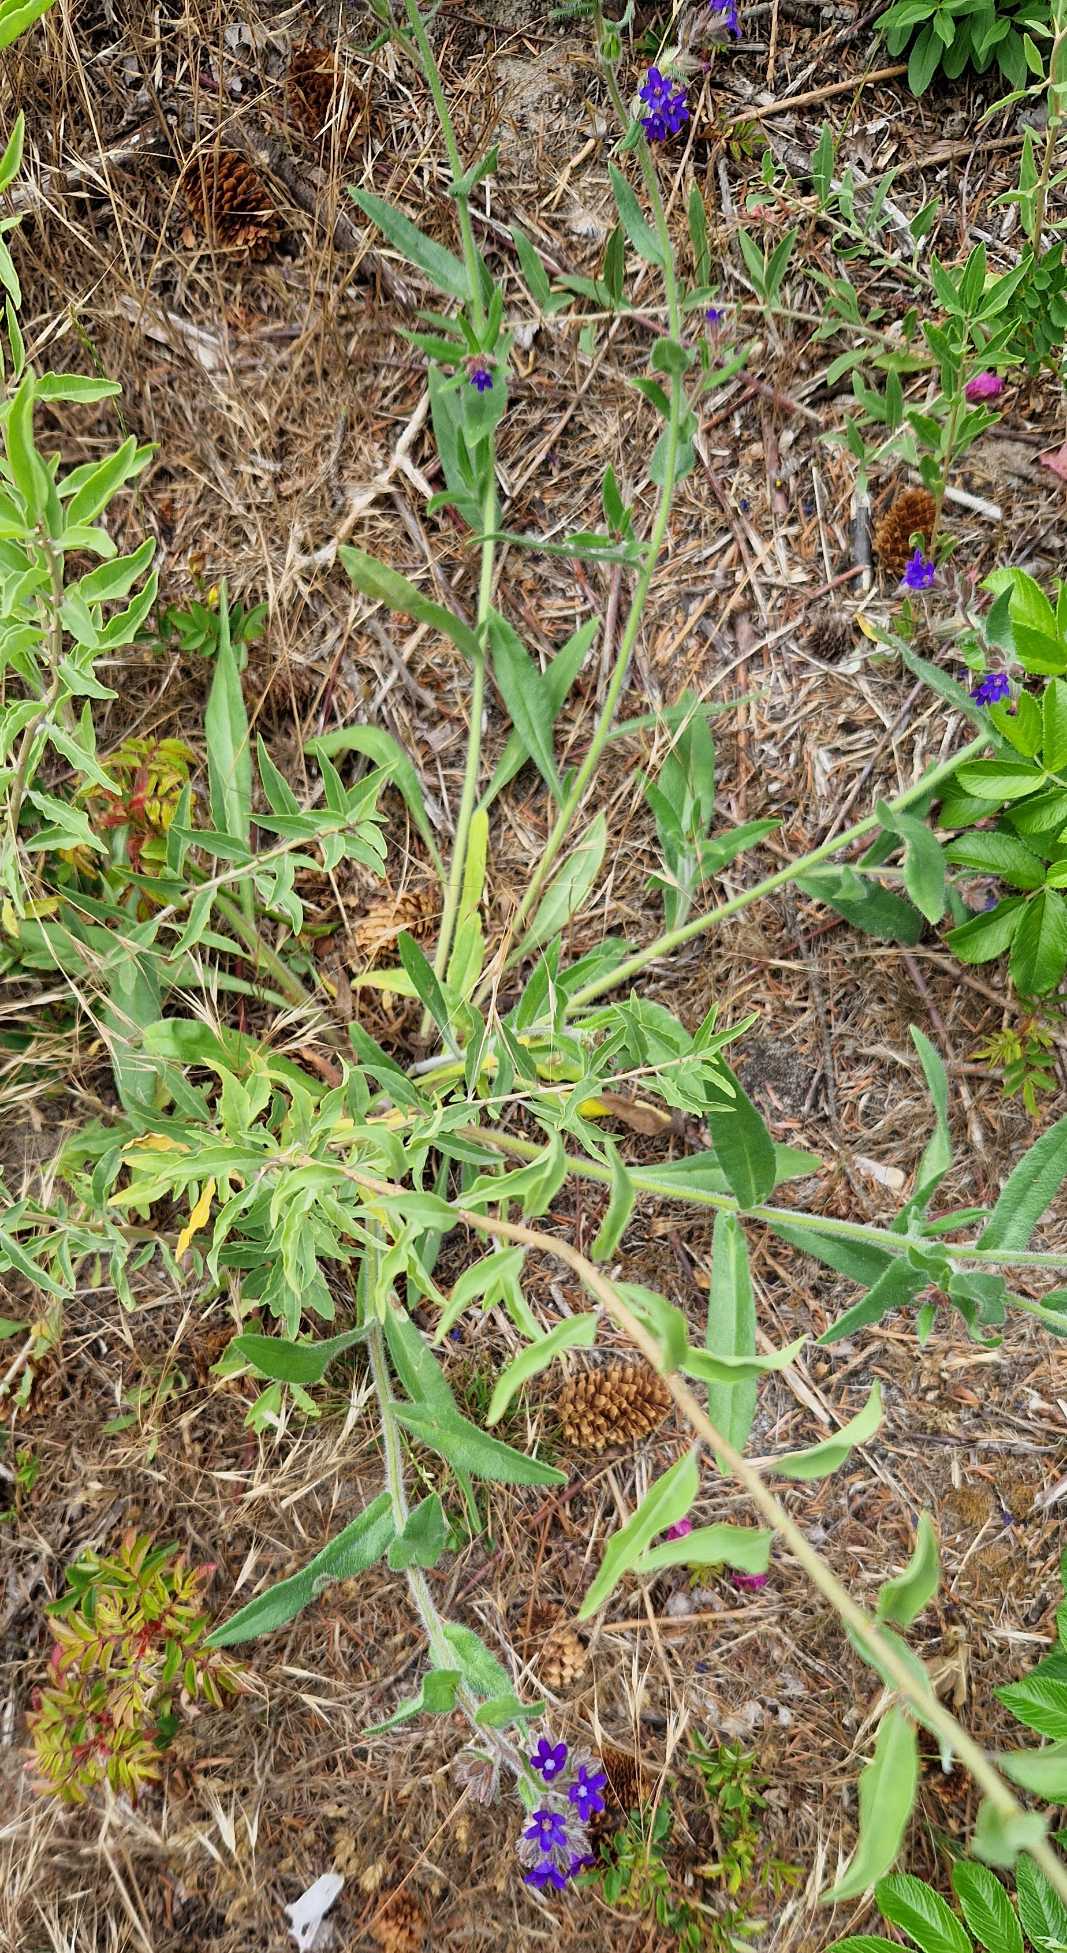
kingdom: Plantae
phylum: Tracheophyta
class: Magnoliopsida
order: Boraginales
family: Boraginaceae
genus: Anchusa
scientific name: Anchusa officinalis
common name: Læge-oksetunge
